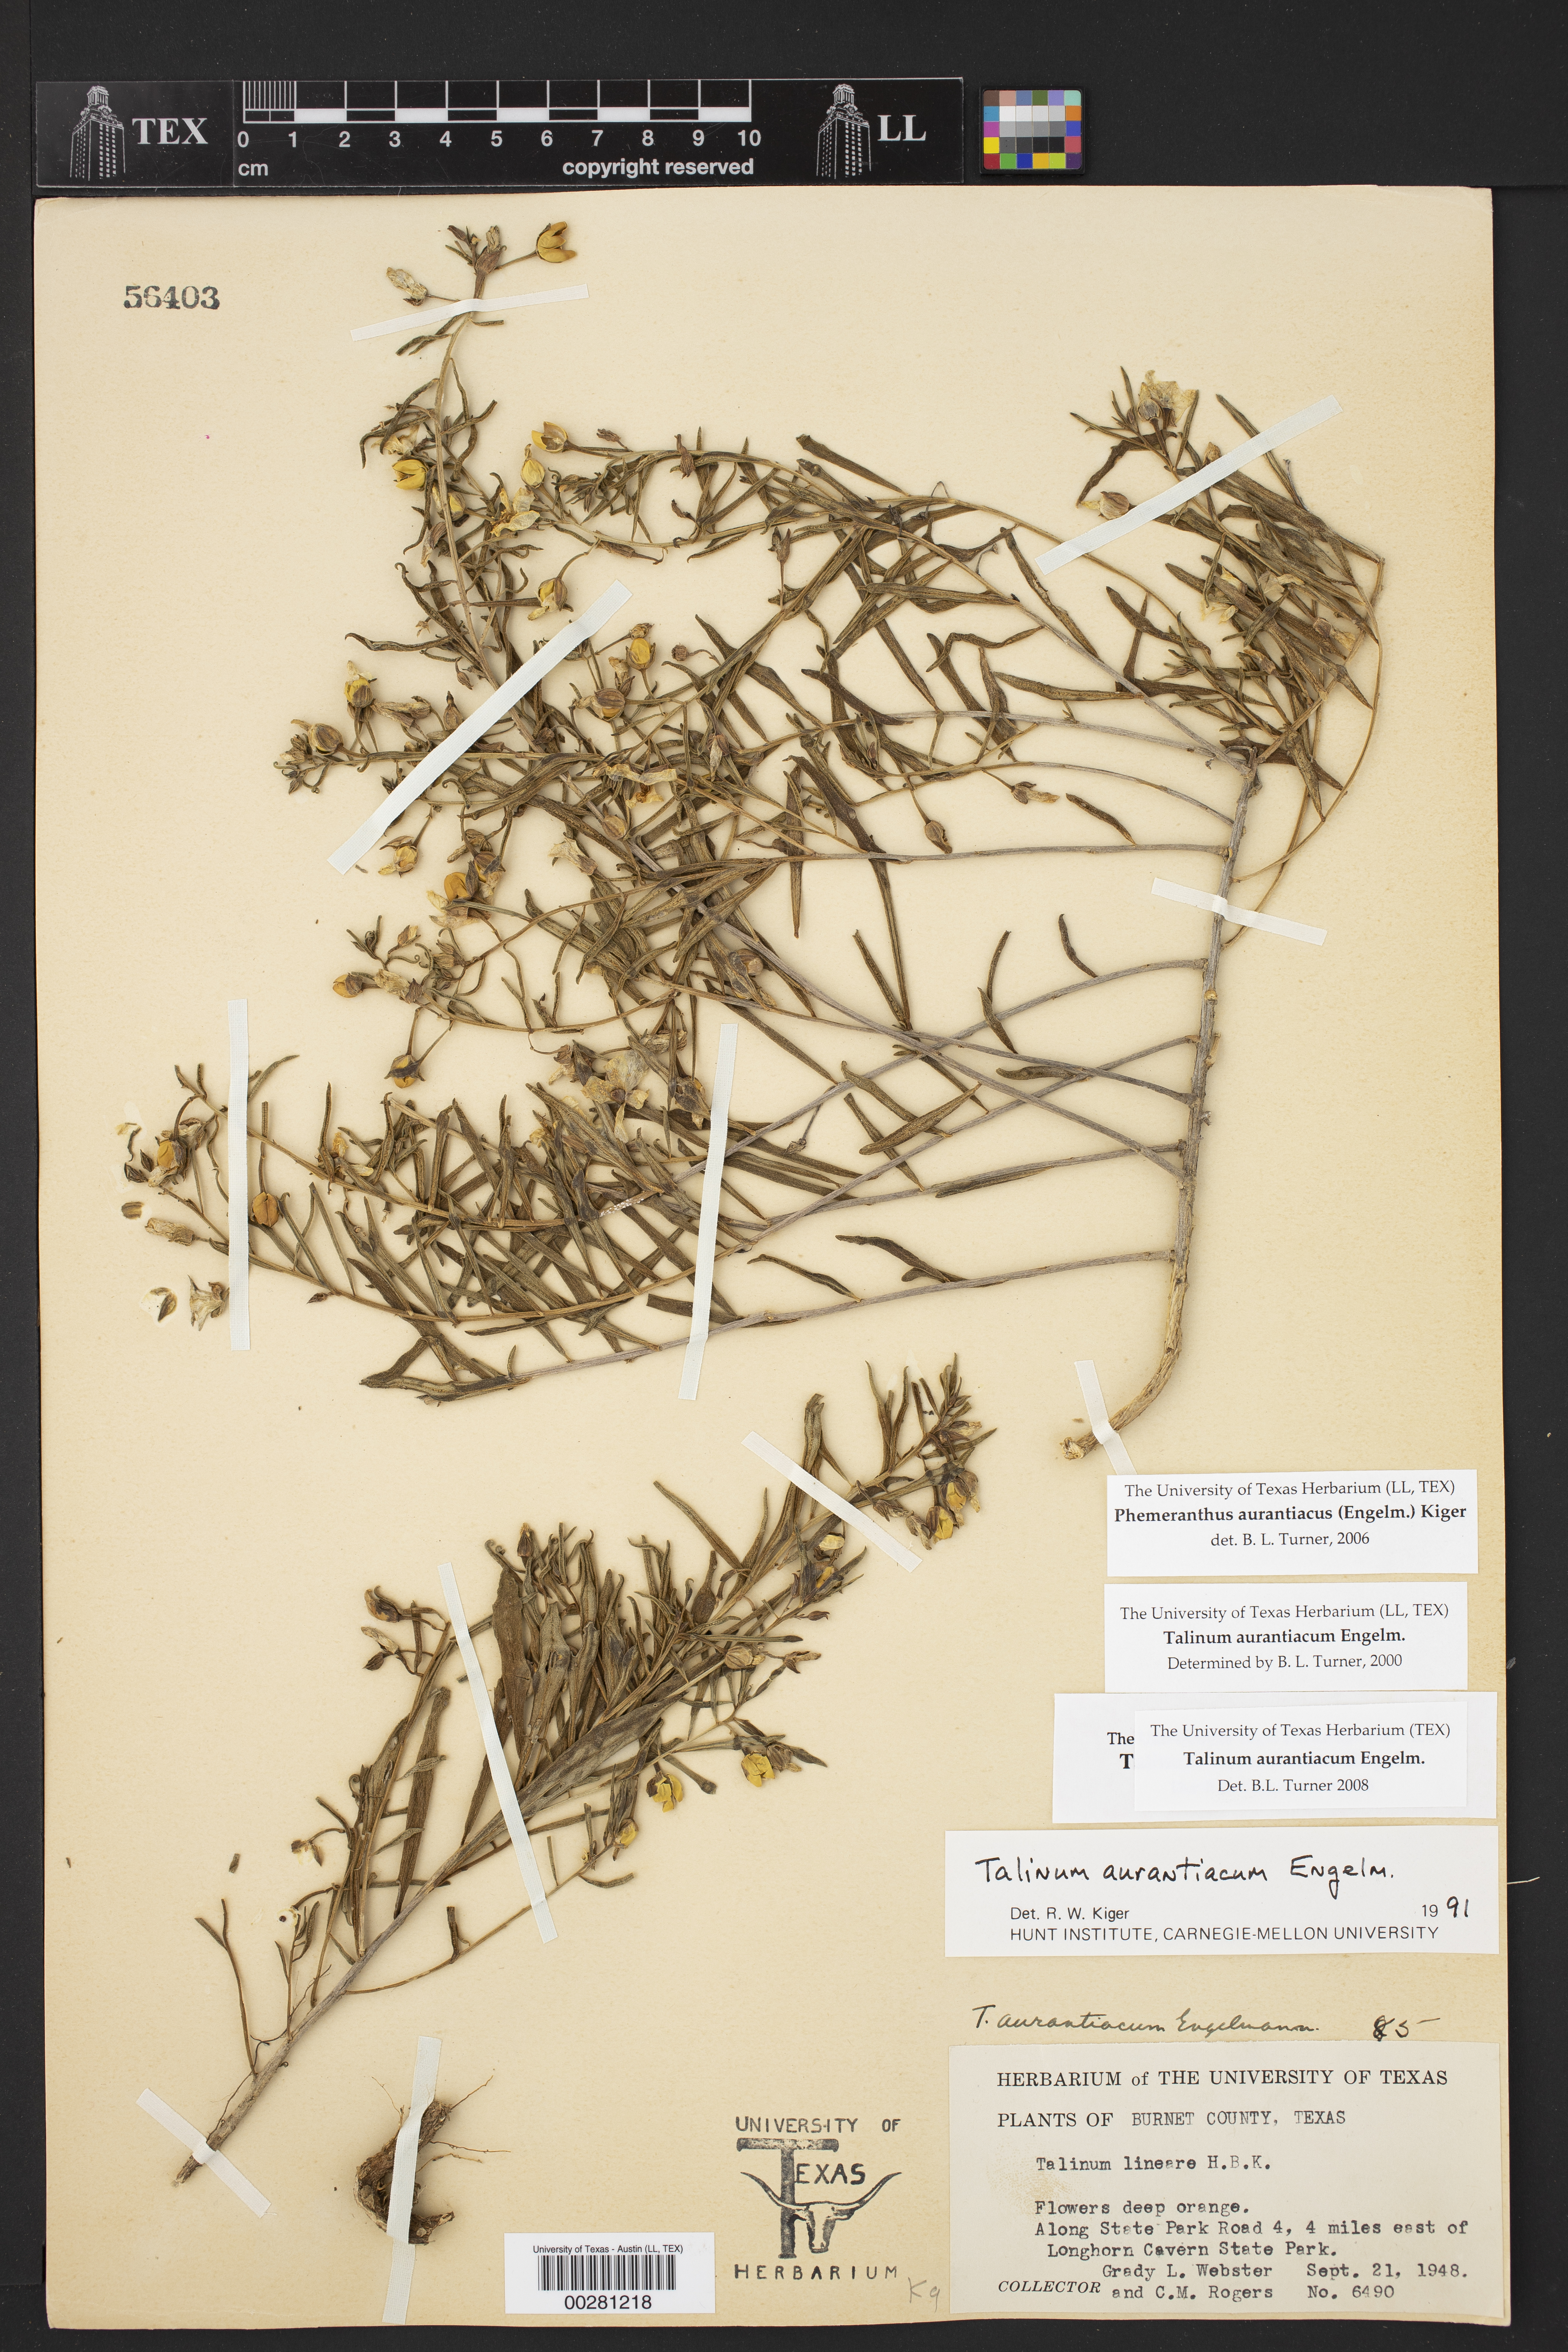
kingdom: Plantae
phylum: Tracheophyta
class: Magnoliopsida
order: Caryophyllales
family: Montiaceae
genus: Phemeranthus
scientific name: Phemeranthus aurantiacus
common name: Orange fameflower
